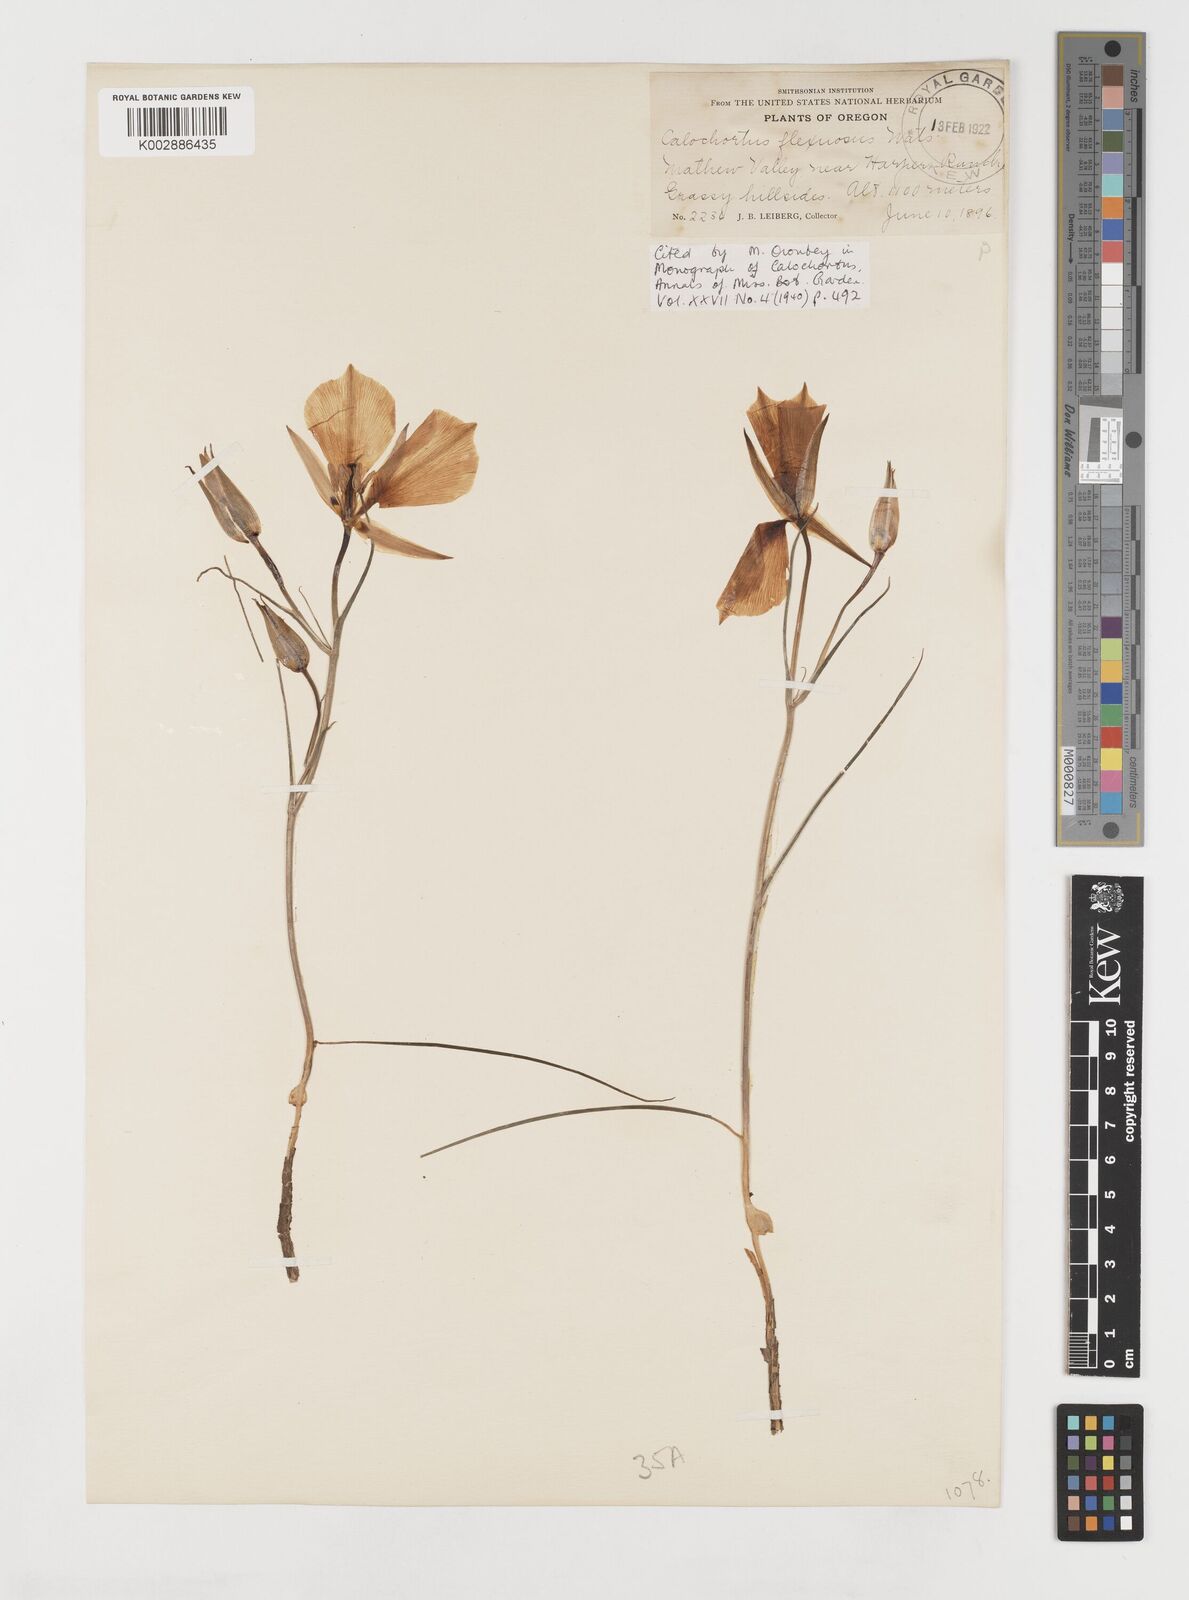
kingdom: Plantae
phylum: Tracheophyta
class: Liliopsida
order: Liliales
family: Liliaceae
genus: Calochortus
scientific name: Calochortus bruneaunis
